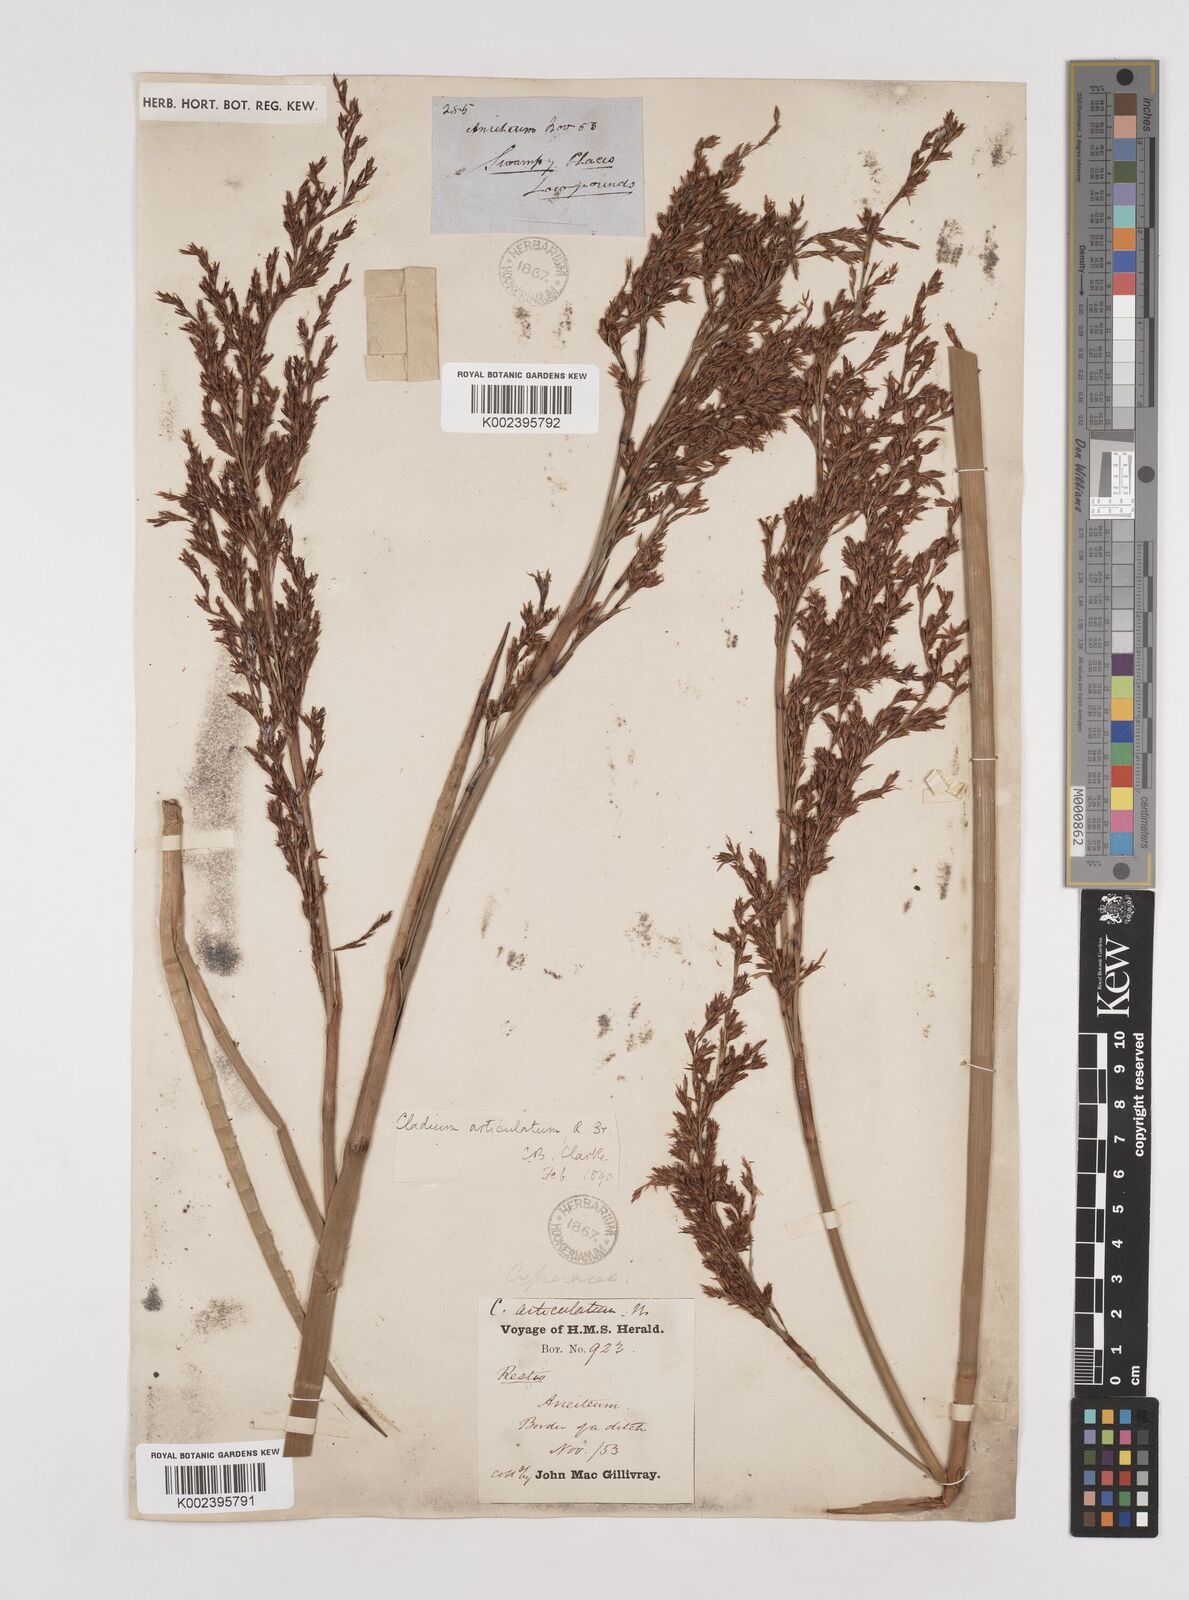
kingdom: Plantae
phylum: Tracheophyta
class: Liliopsida
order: Poales
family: Cyperaceae
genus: Machaerina
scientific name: Machaerina articulata
